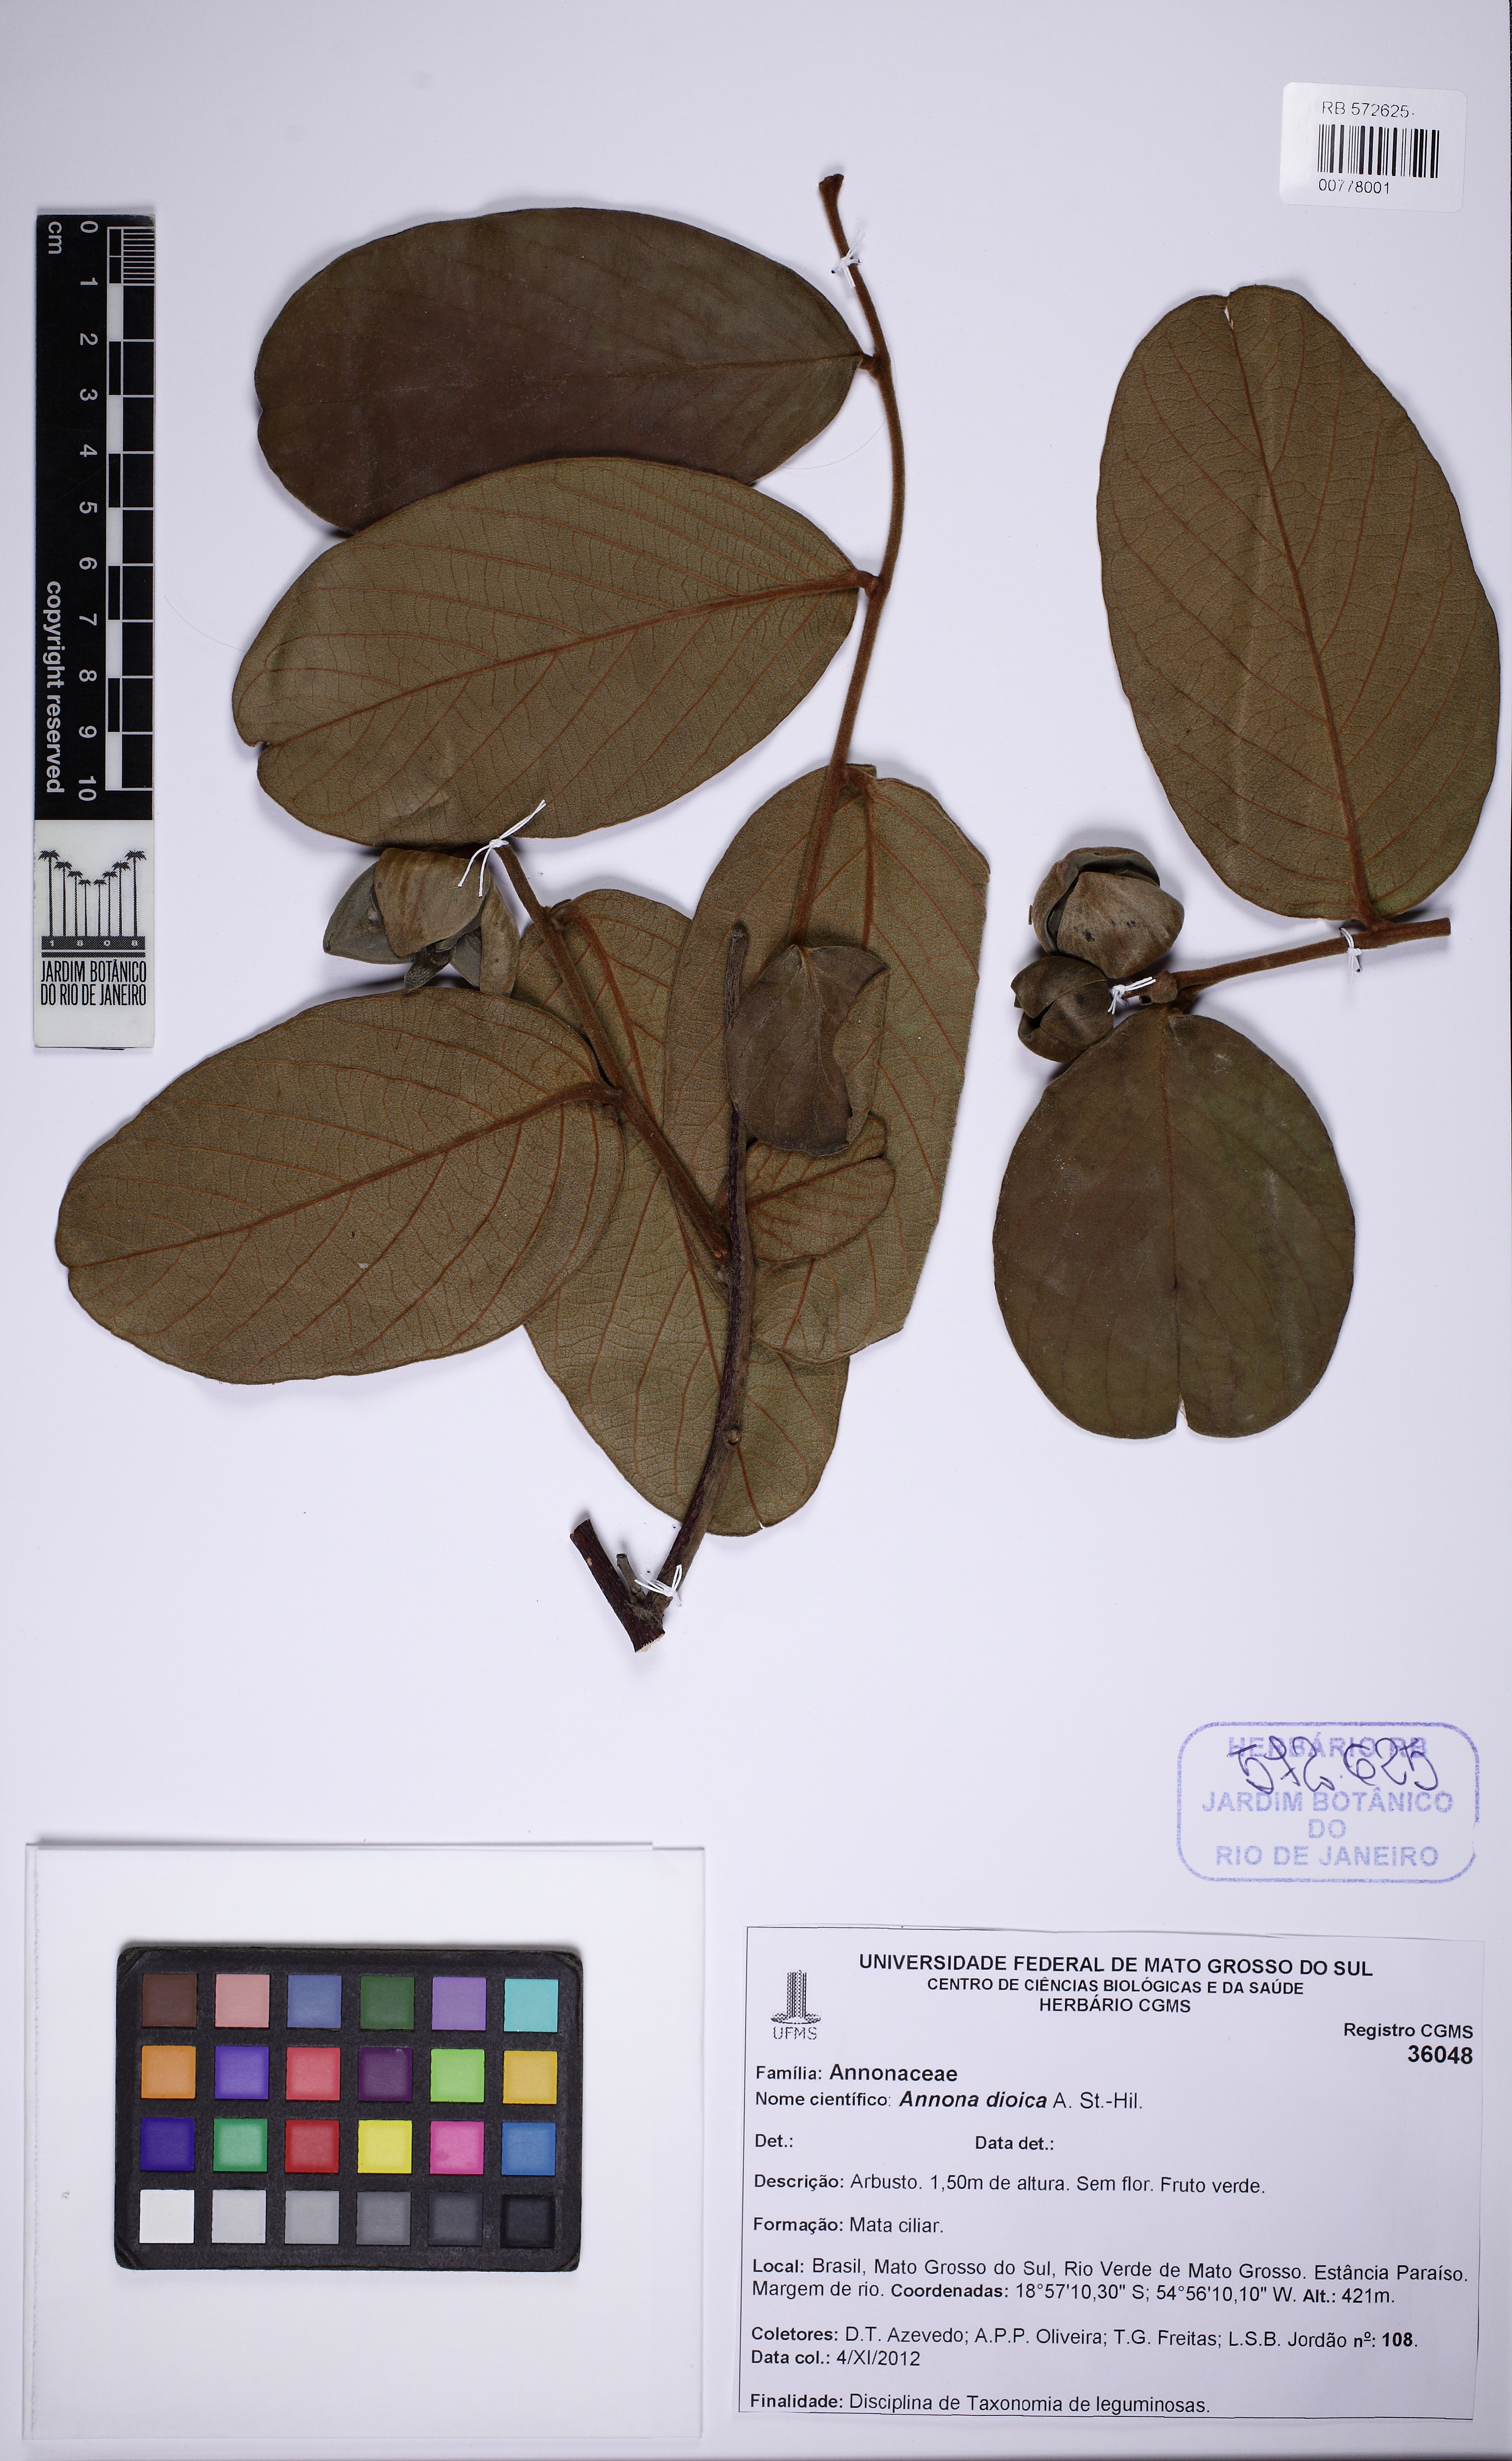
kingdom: Plantae
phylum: Tracheophyta
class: Magnoliopsida
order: Magnoliales
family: Annonaceae
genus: Annona
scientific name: Annona dioica
